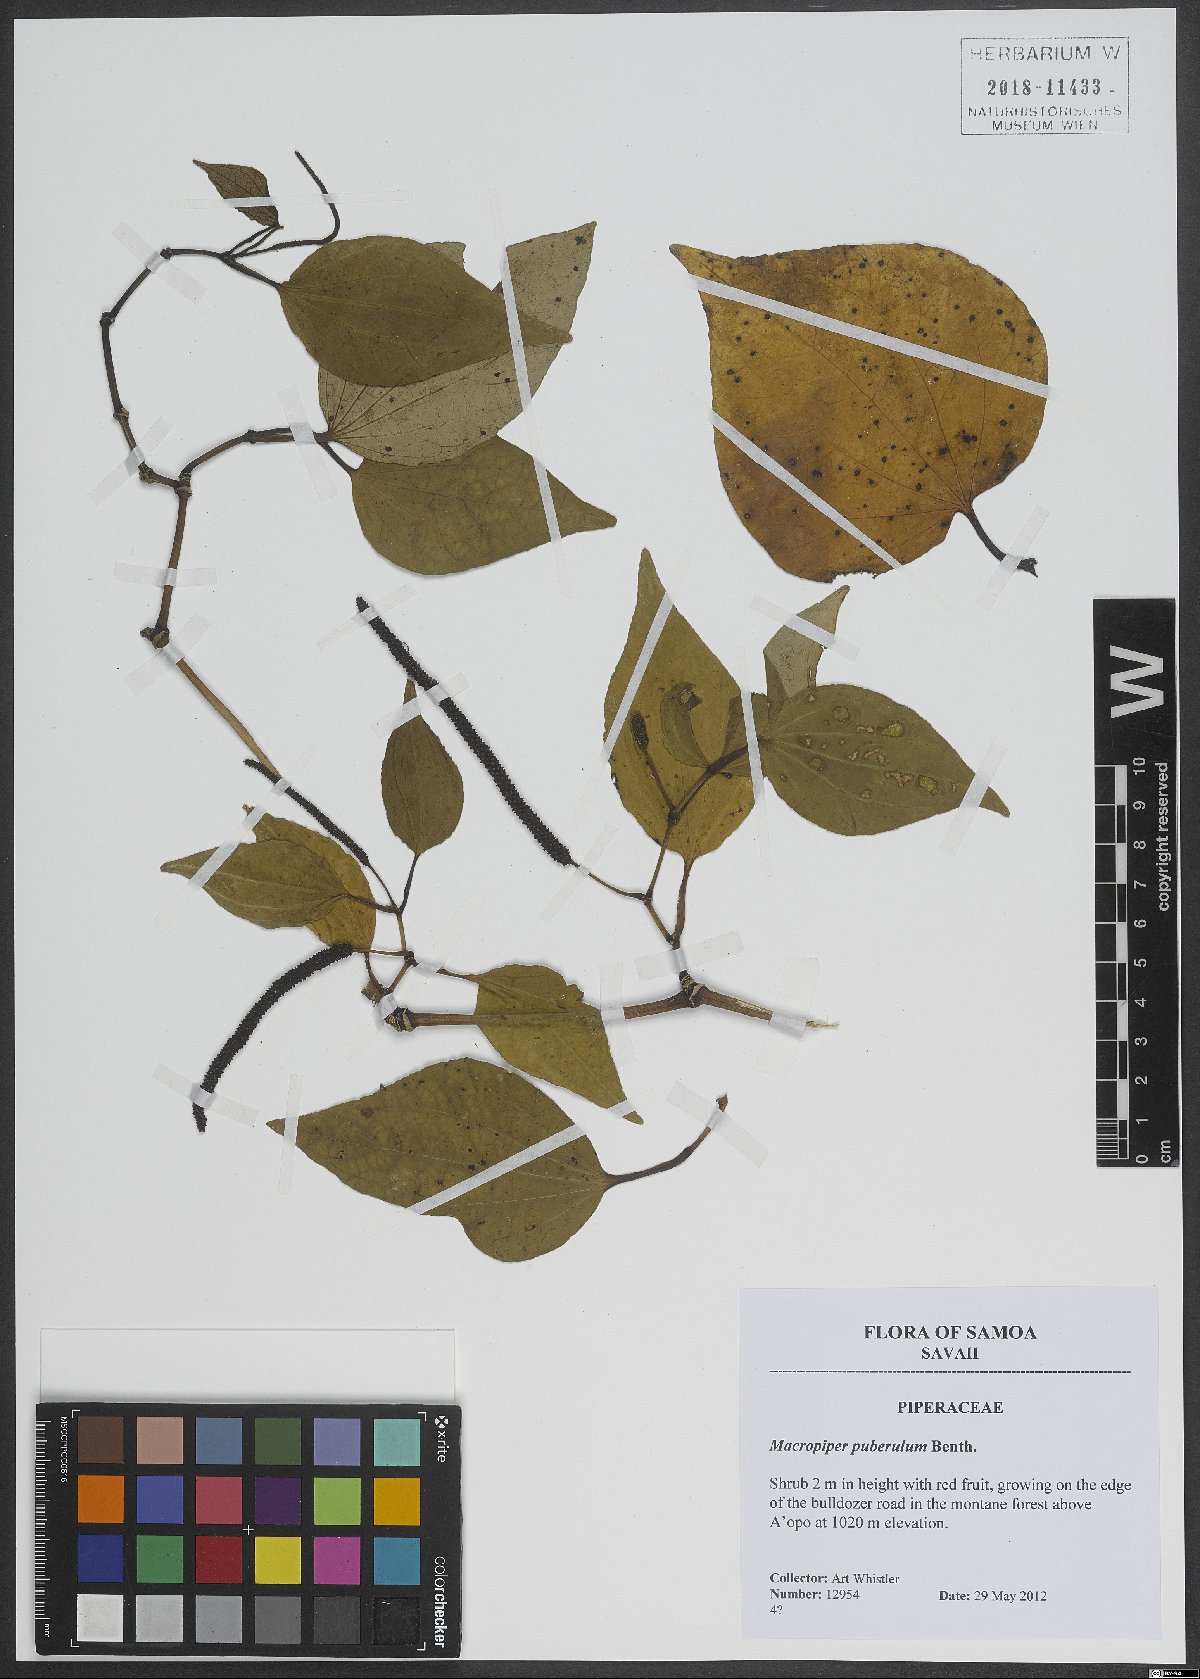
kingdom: Plantae
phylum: Tracheophyta
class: Magnoliopsida
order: Piperales
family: Piperaceae
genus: Macropiper
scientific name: Macropiper puberulum
